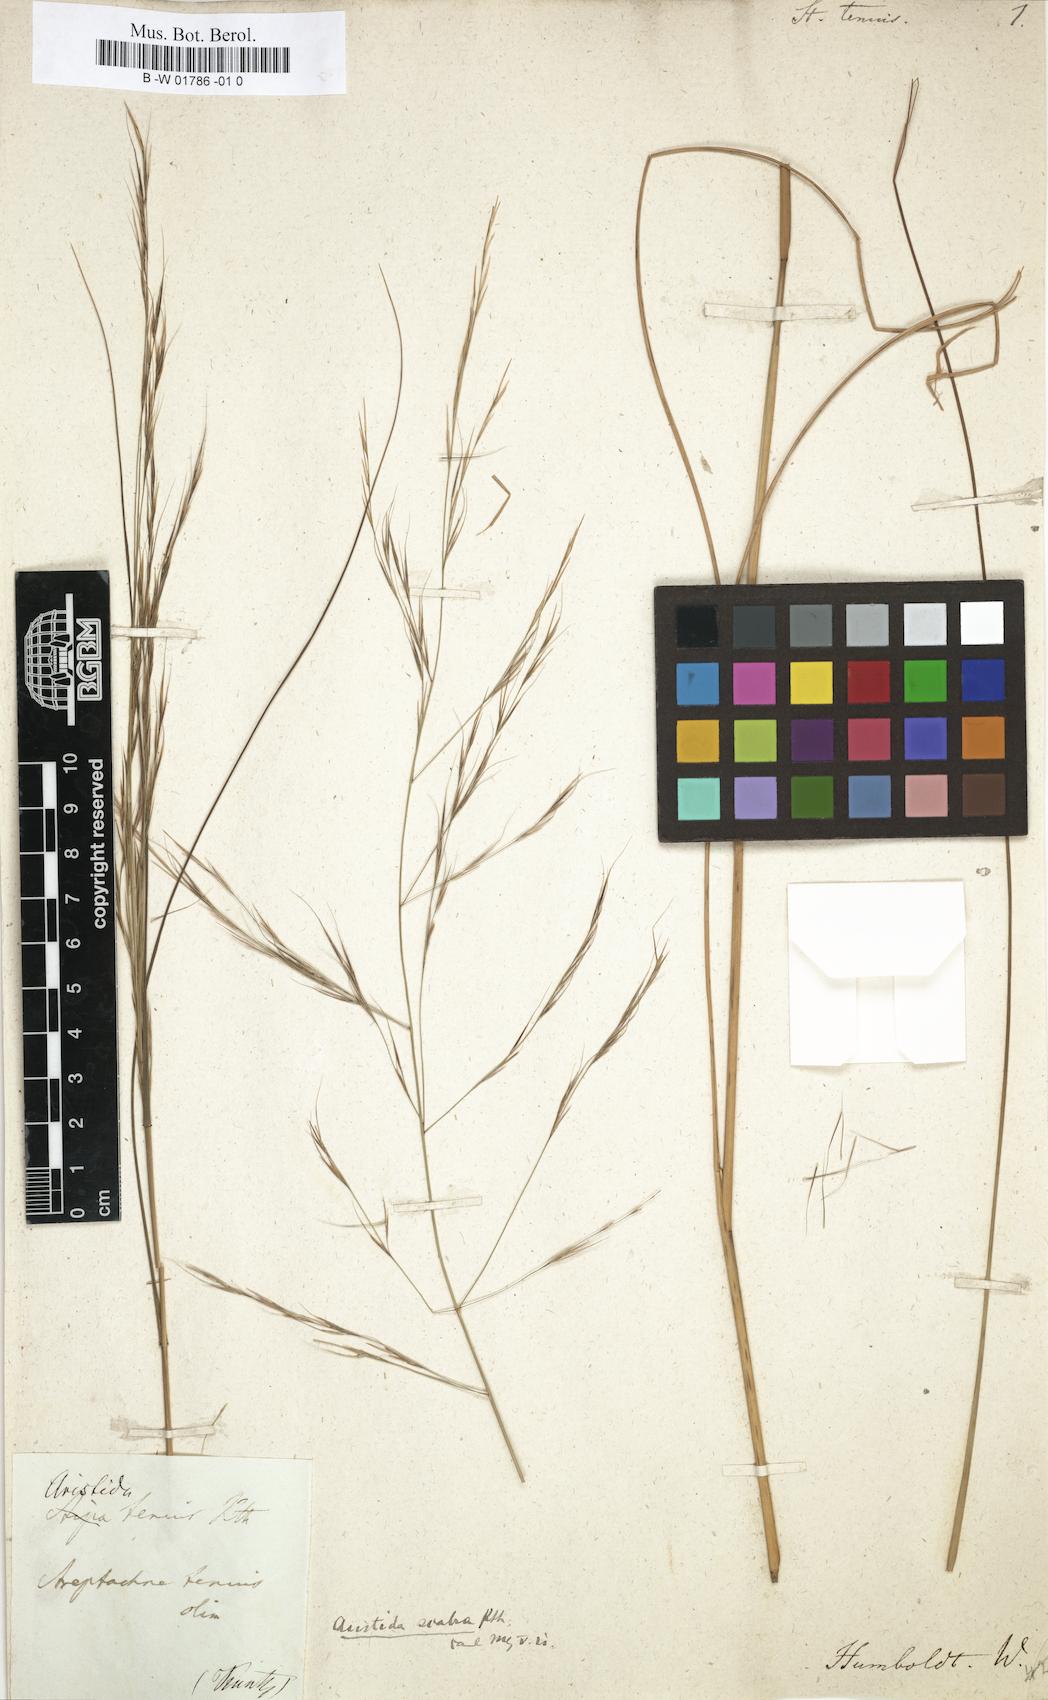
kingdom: Plantae
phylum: Tracheophyta
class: Liliopsida
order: Poales
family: Poaceae
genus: Aristida
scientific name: Aristida ternipes
